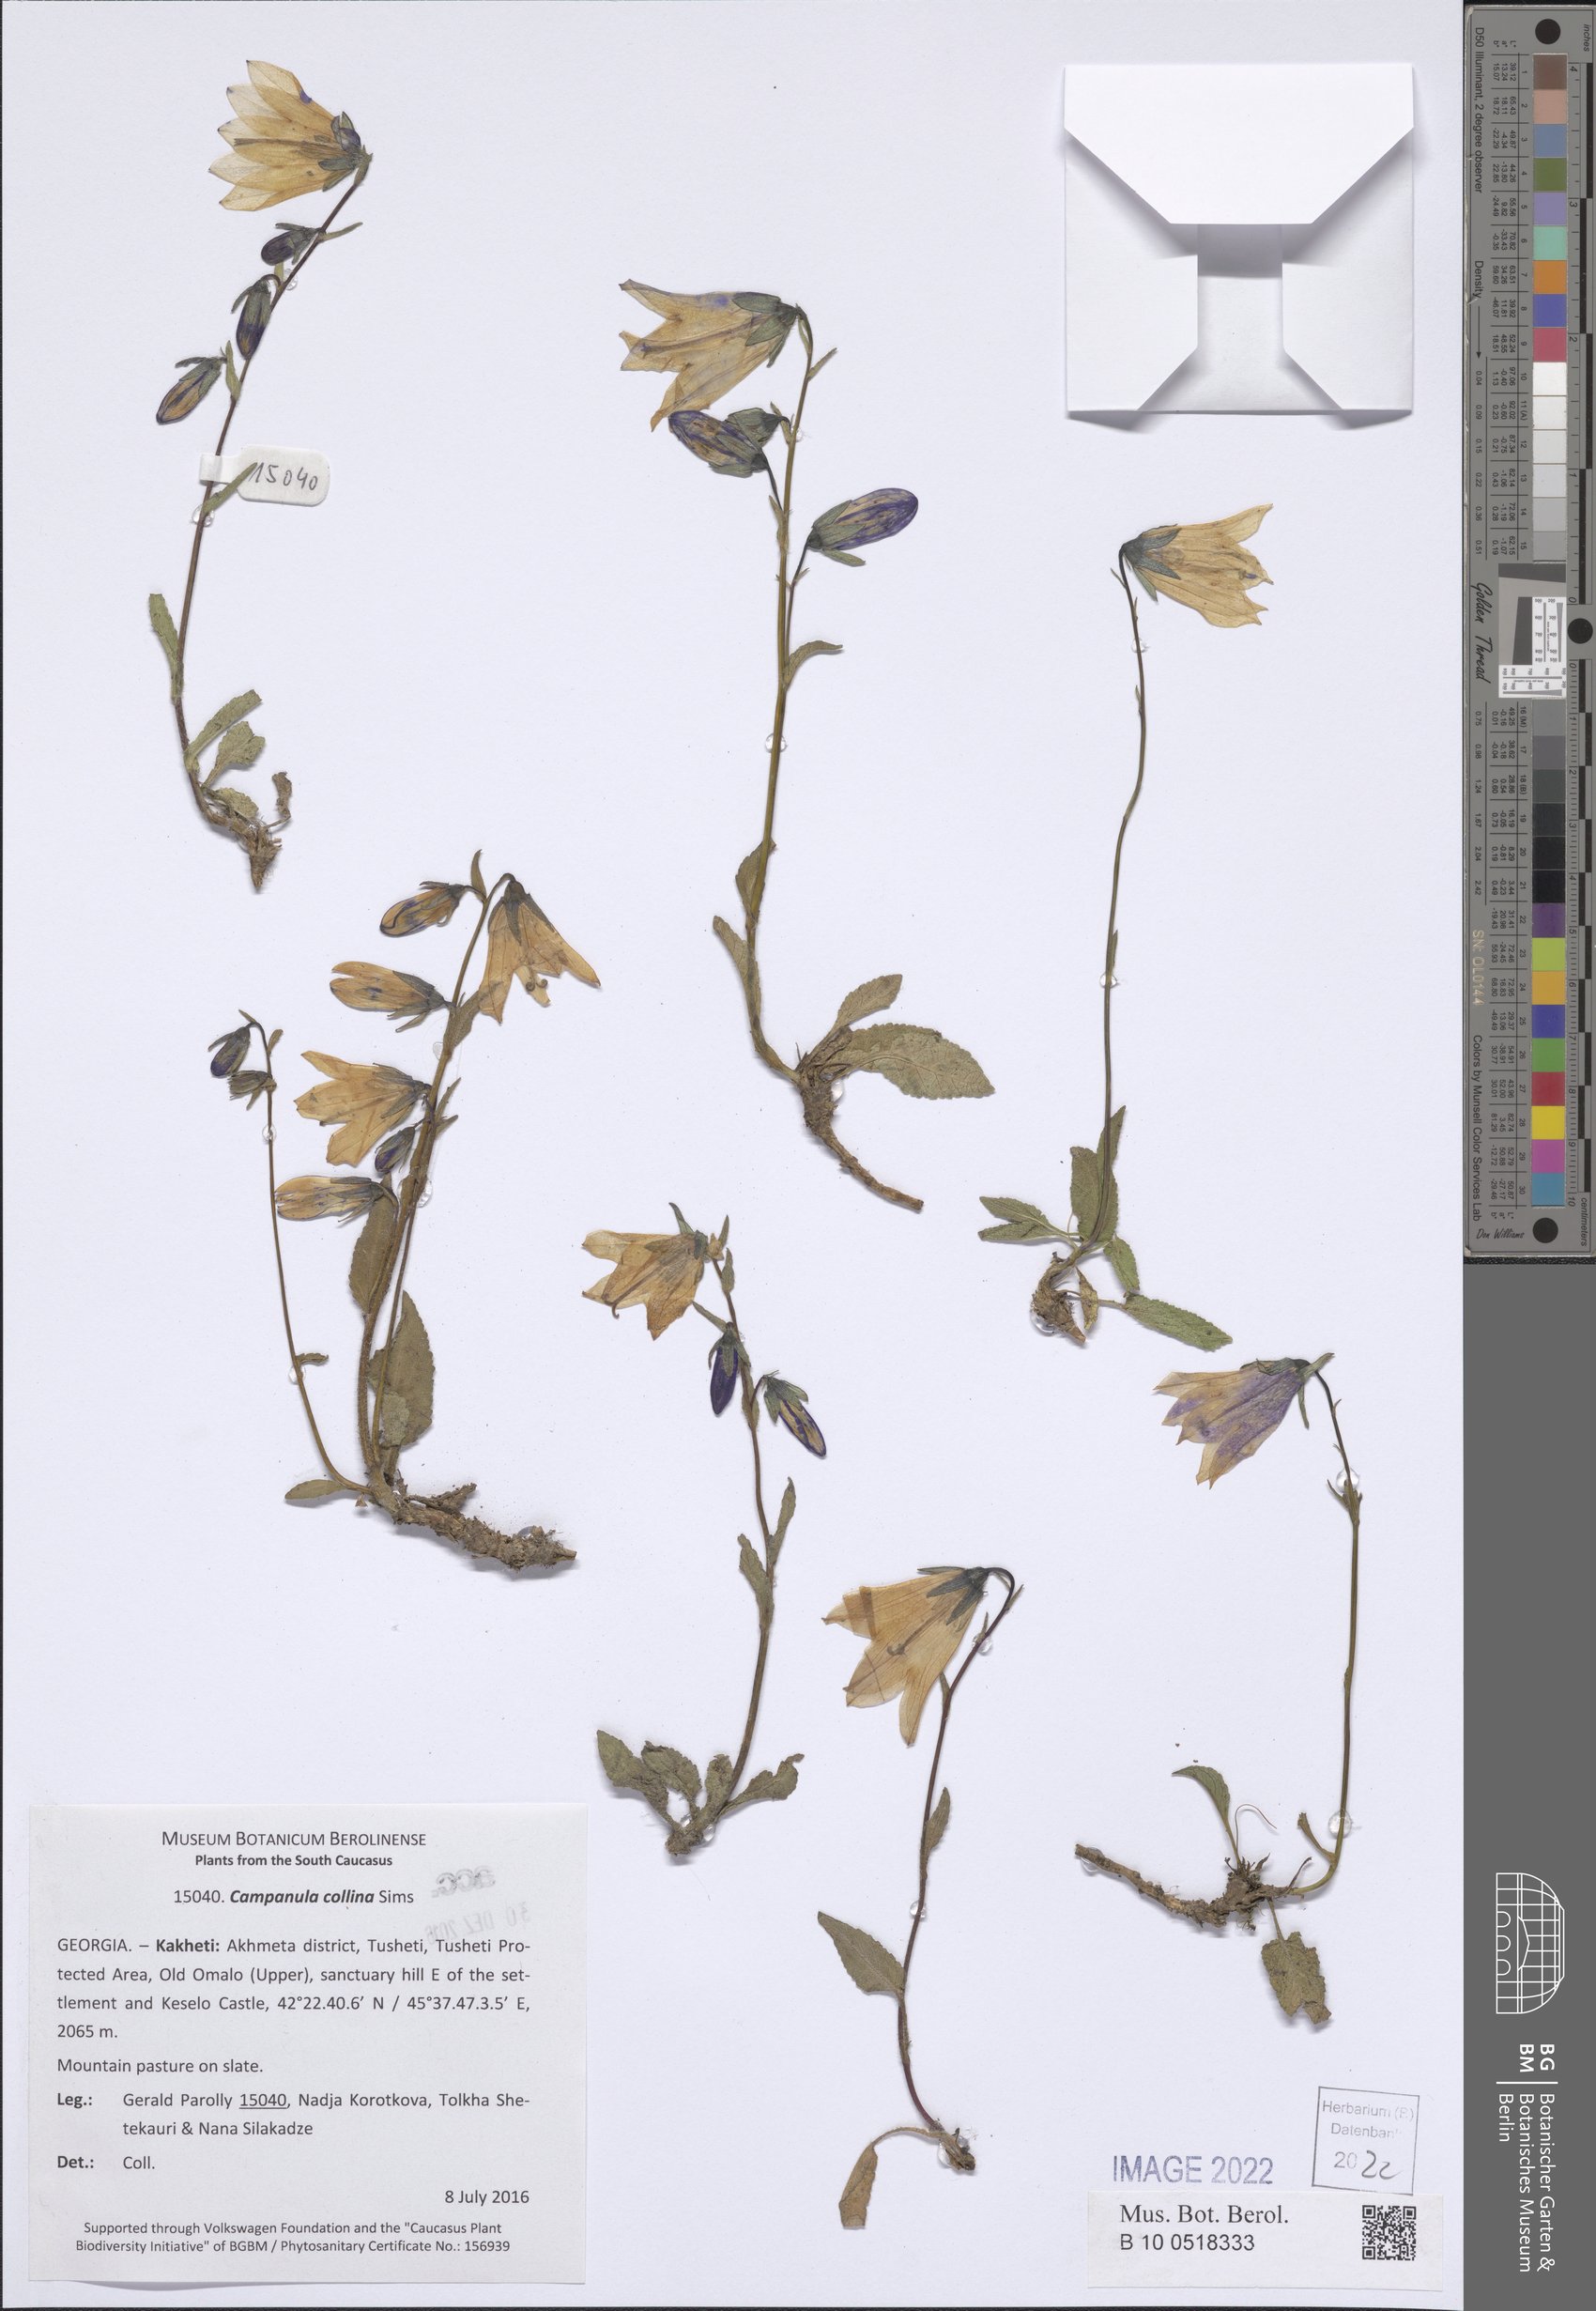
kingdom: Plantae
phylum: Tracheophyta
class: Magnoliopsida
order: Asterales
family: Campanulaceae
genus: Campanula
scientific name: Campanula collina
